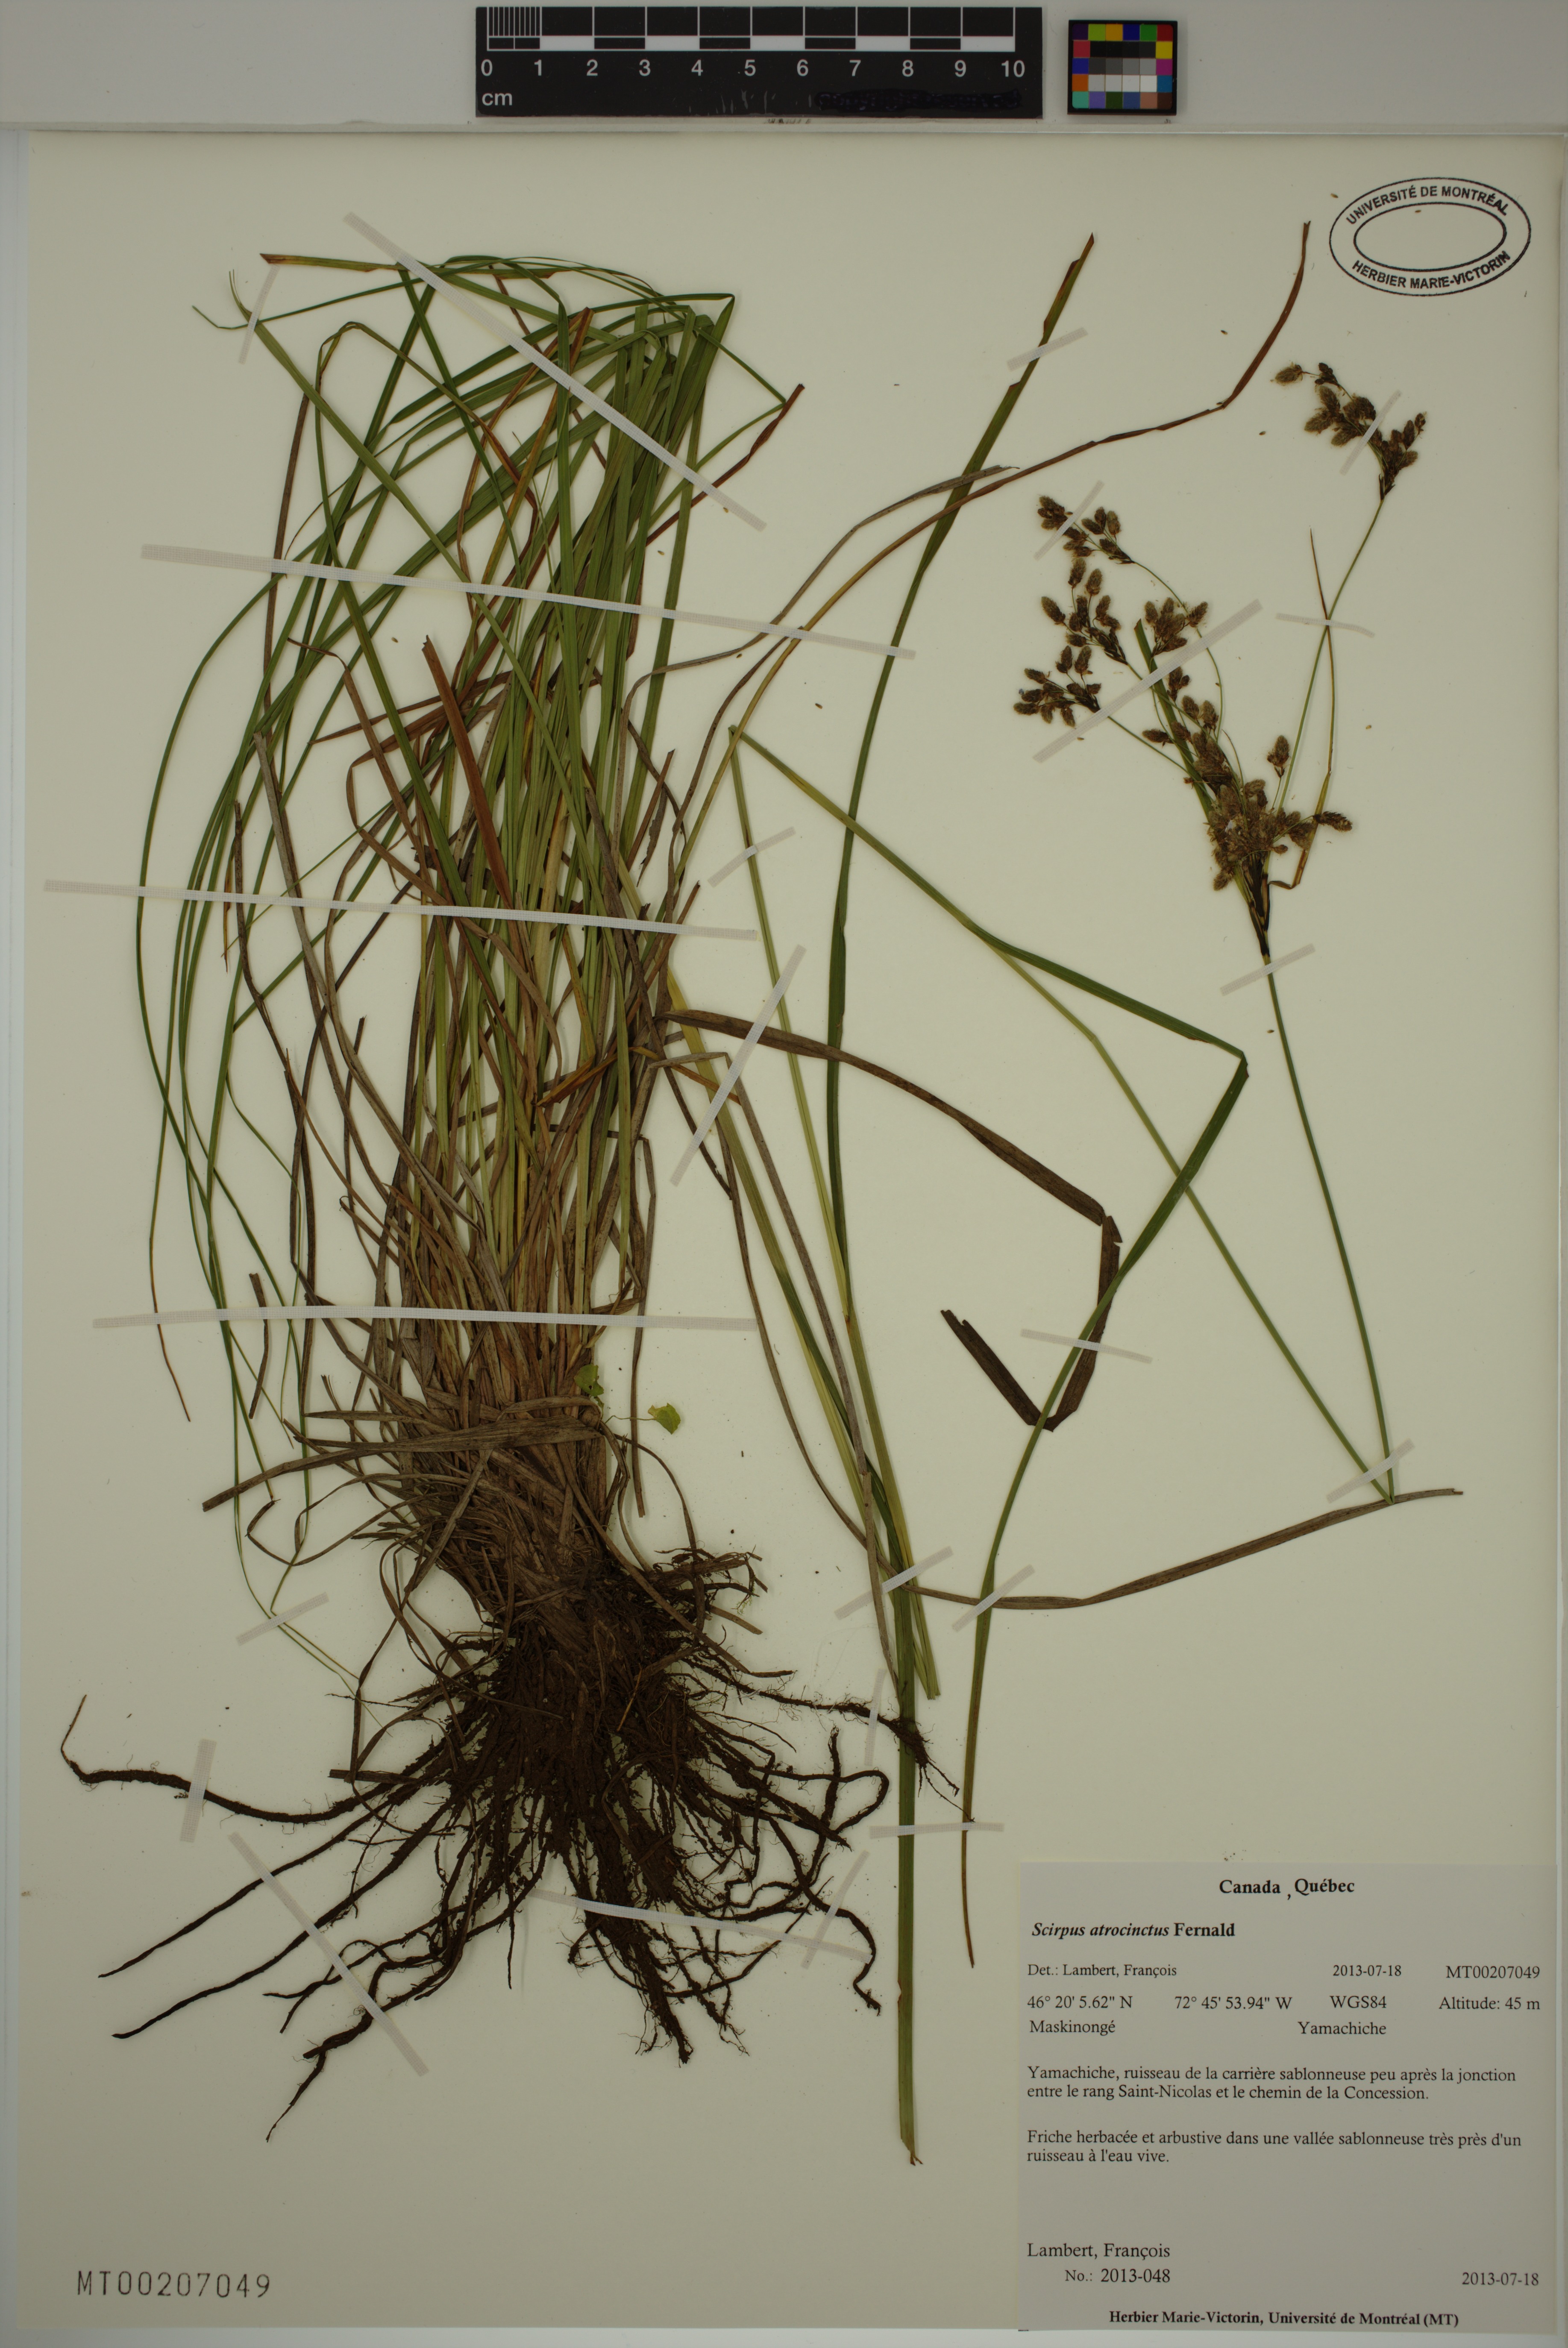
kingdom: Plantae
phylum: Tracheophyta
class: Liliopsida
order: Poales
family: Cyperaceae
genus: Scirpus
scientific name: Scirpus atrocinctus
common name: Black-girdled bulrush
